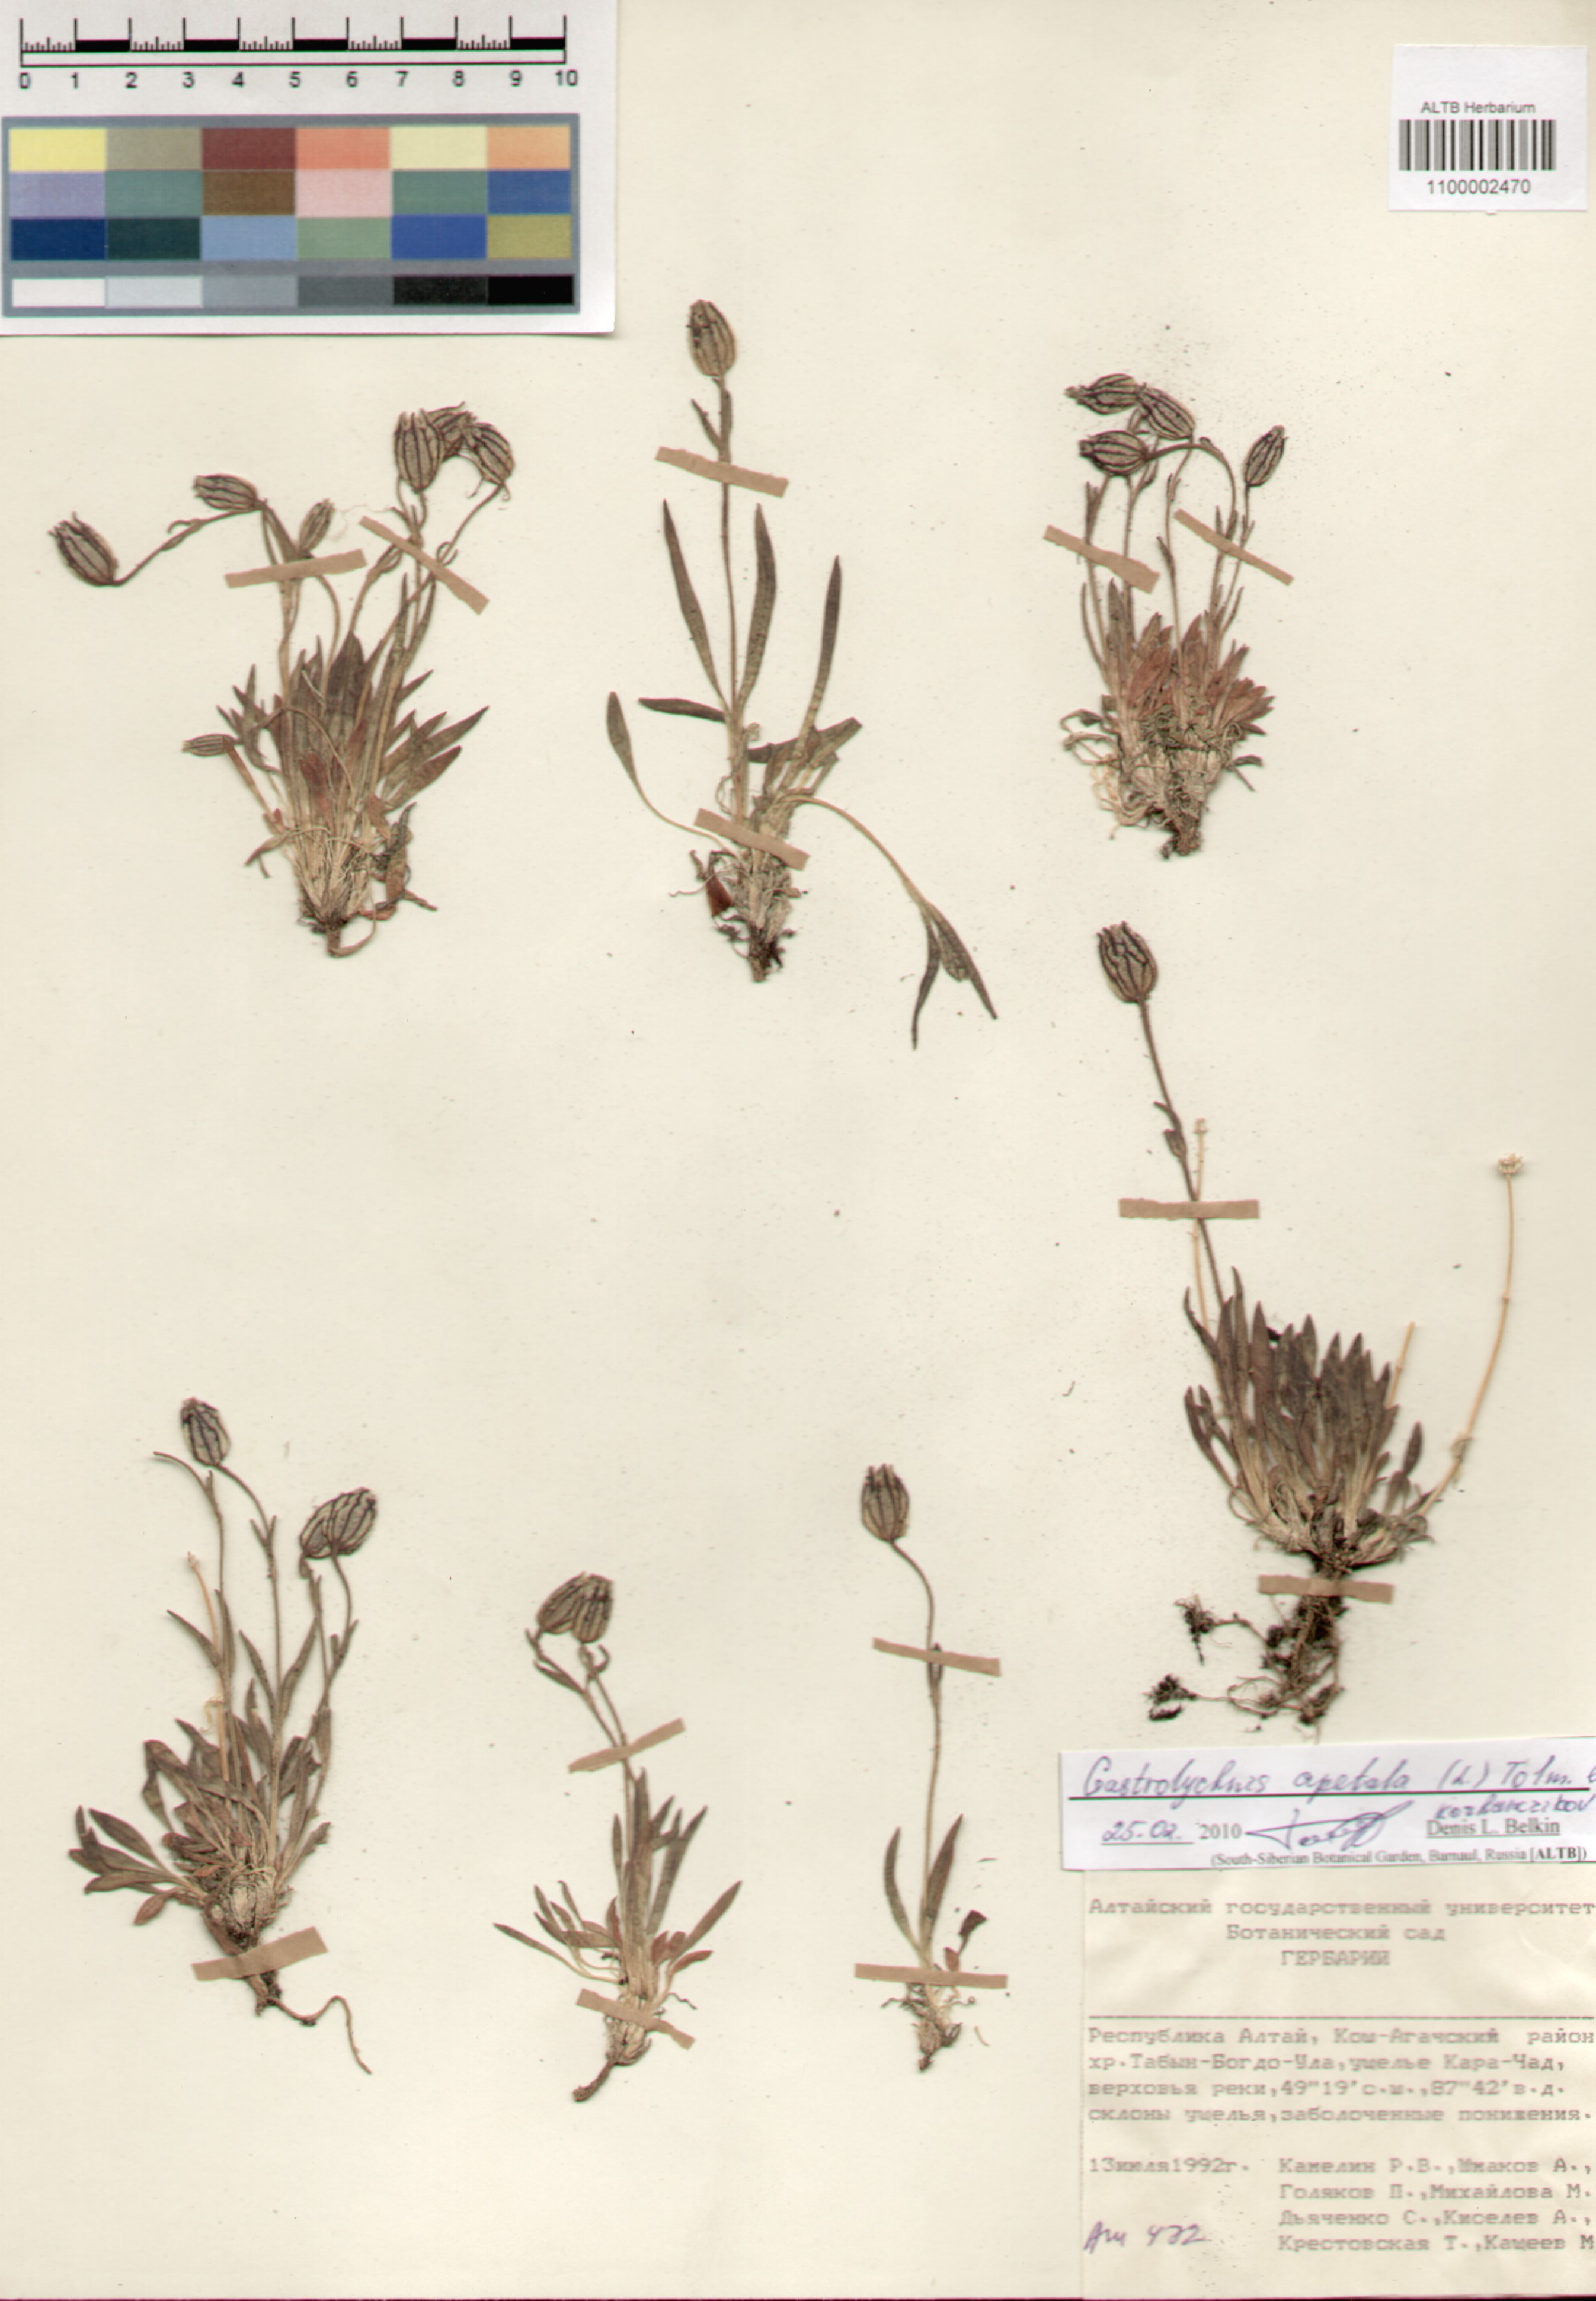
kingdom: Plantae
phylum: Tracheophyta
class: Magnoliopsida
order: Caryophyllales
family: Caryophyllaceae
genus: Silene
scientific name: Silene wahlbergella
